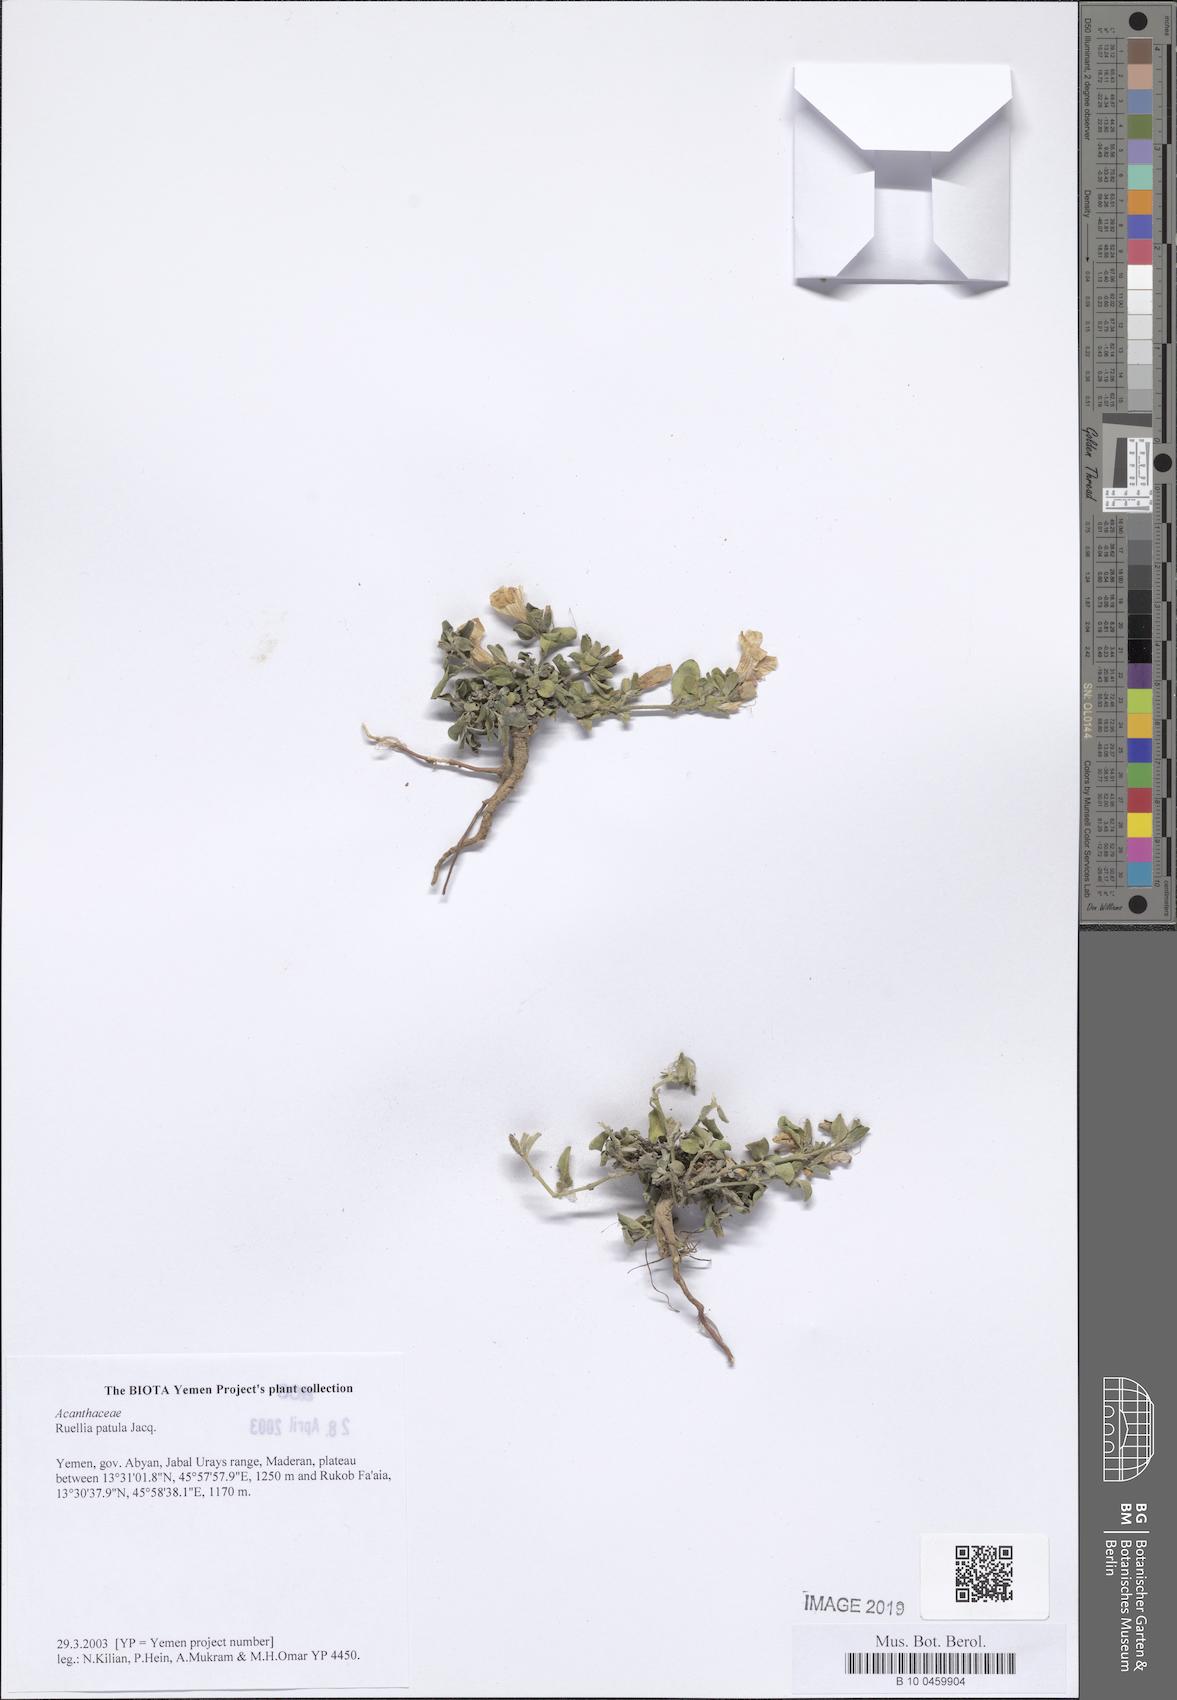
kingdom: Plantae
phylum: Tracheophyta
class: Magnoliopsida
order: Lamiales
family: Acanthaceae
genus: Ruellia
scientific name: Ruellia patula
